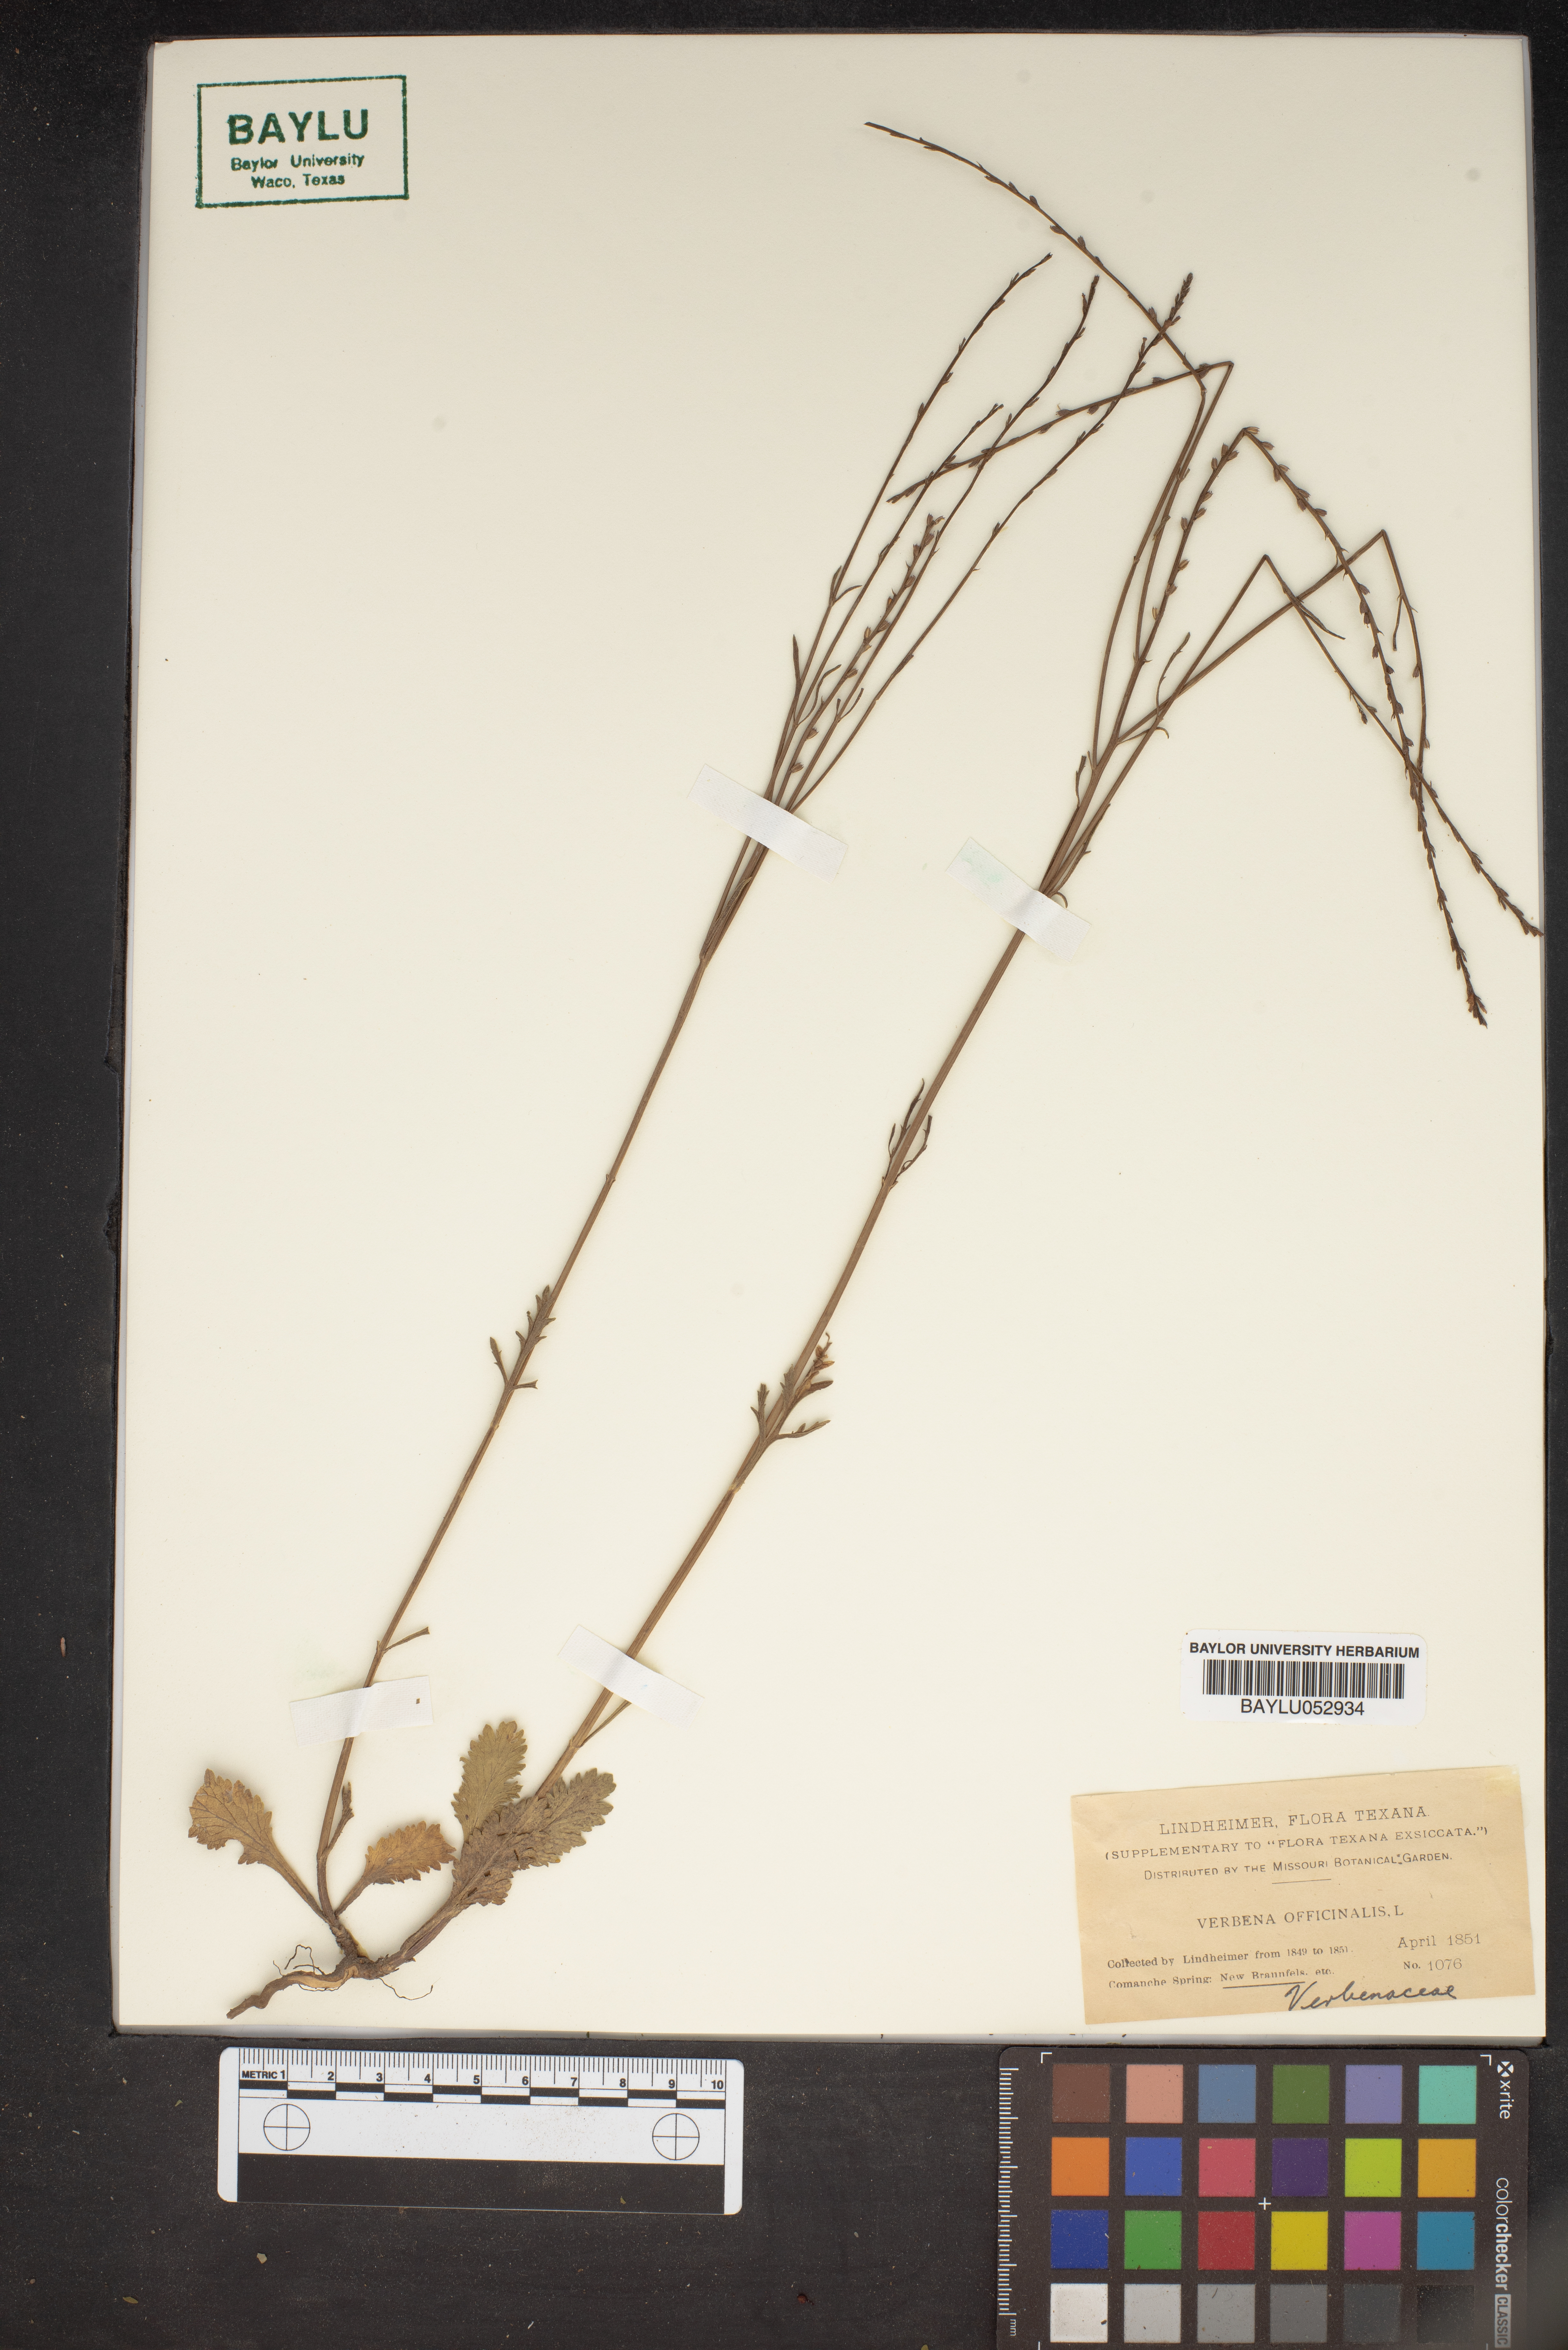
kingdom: Plantae
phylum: Tracheophyta
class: Magnoliopsida
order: Lamiales
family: Verbenaceae
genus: Verbena
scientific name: Verbena officinalis
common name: Vervain
